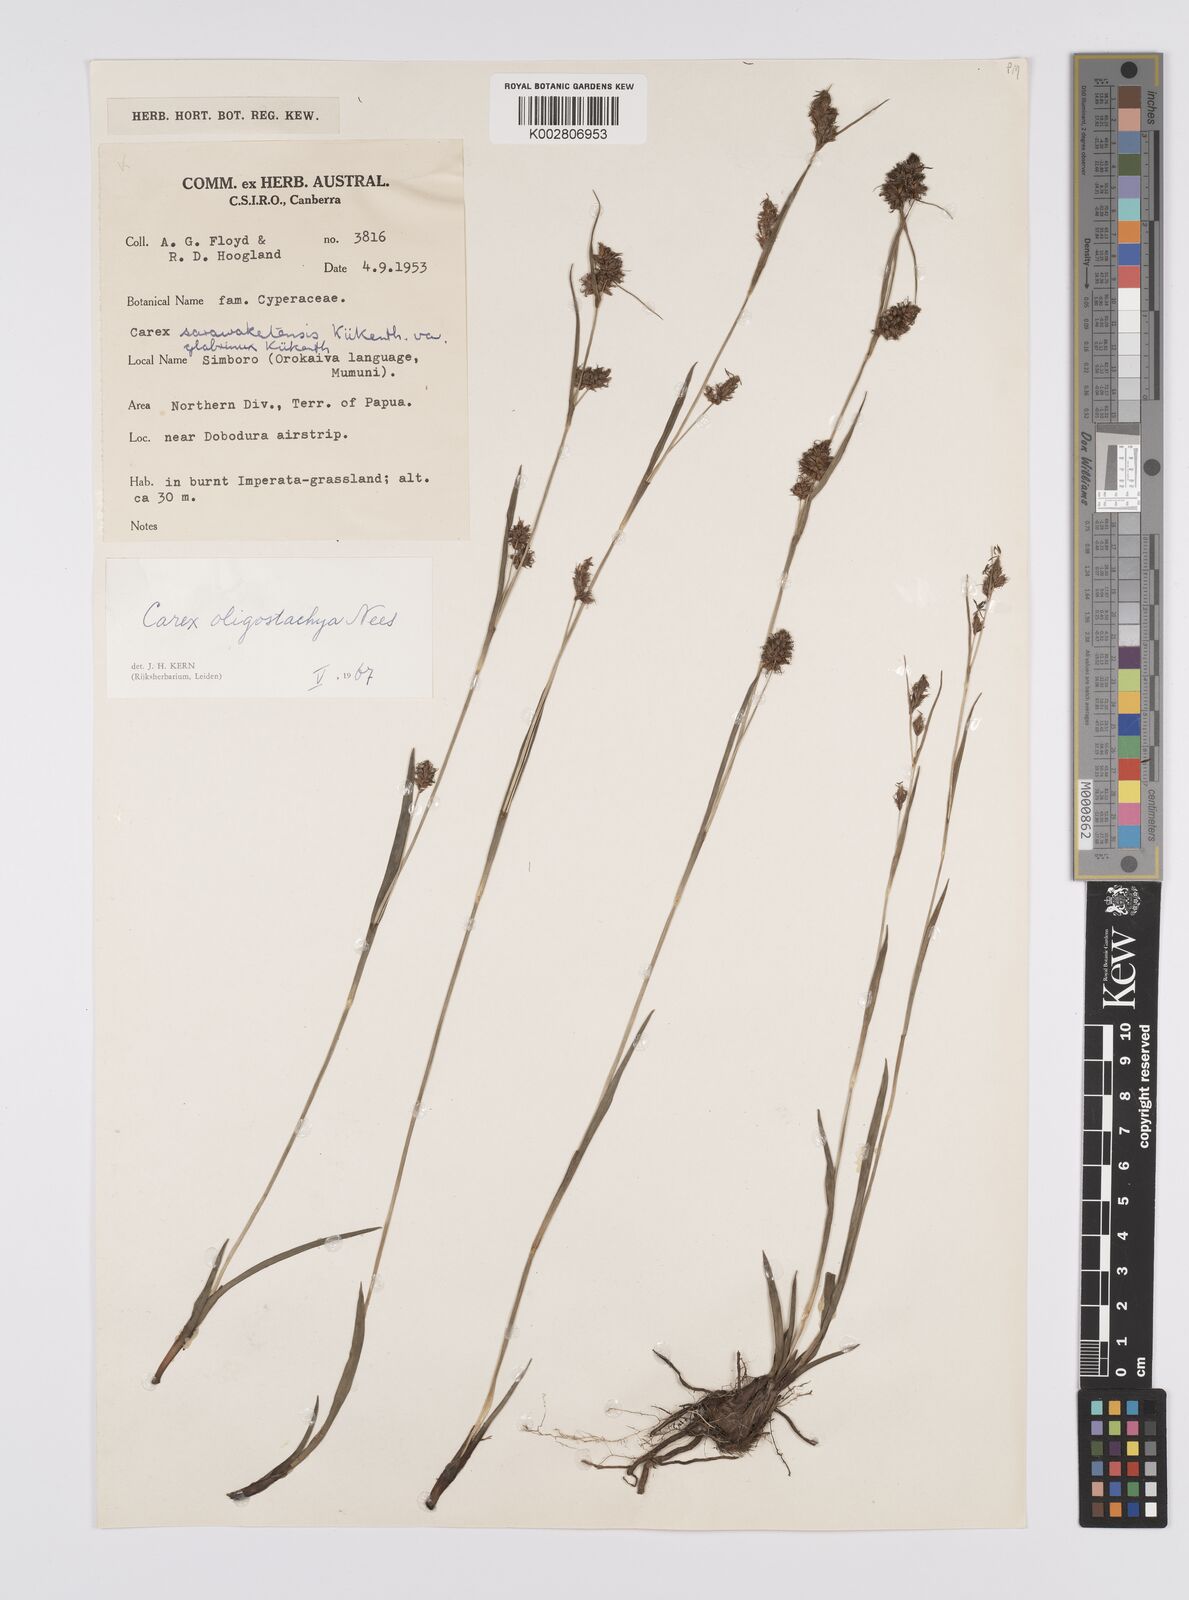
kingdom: Plantae
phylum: Tracheophyta
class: Liliopsida
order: Poales
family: Cyperaceae
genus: Carex
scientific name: Carex oligostachya
